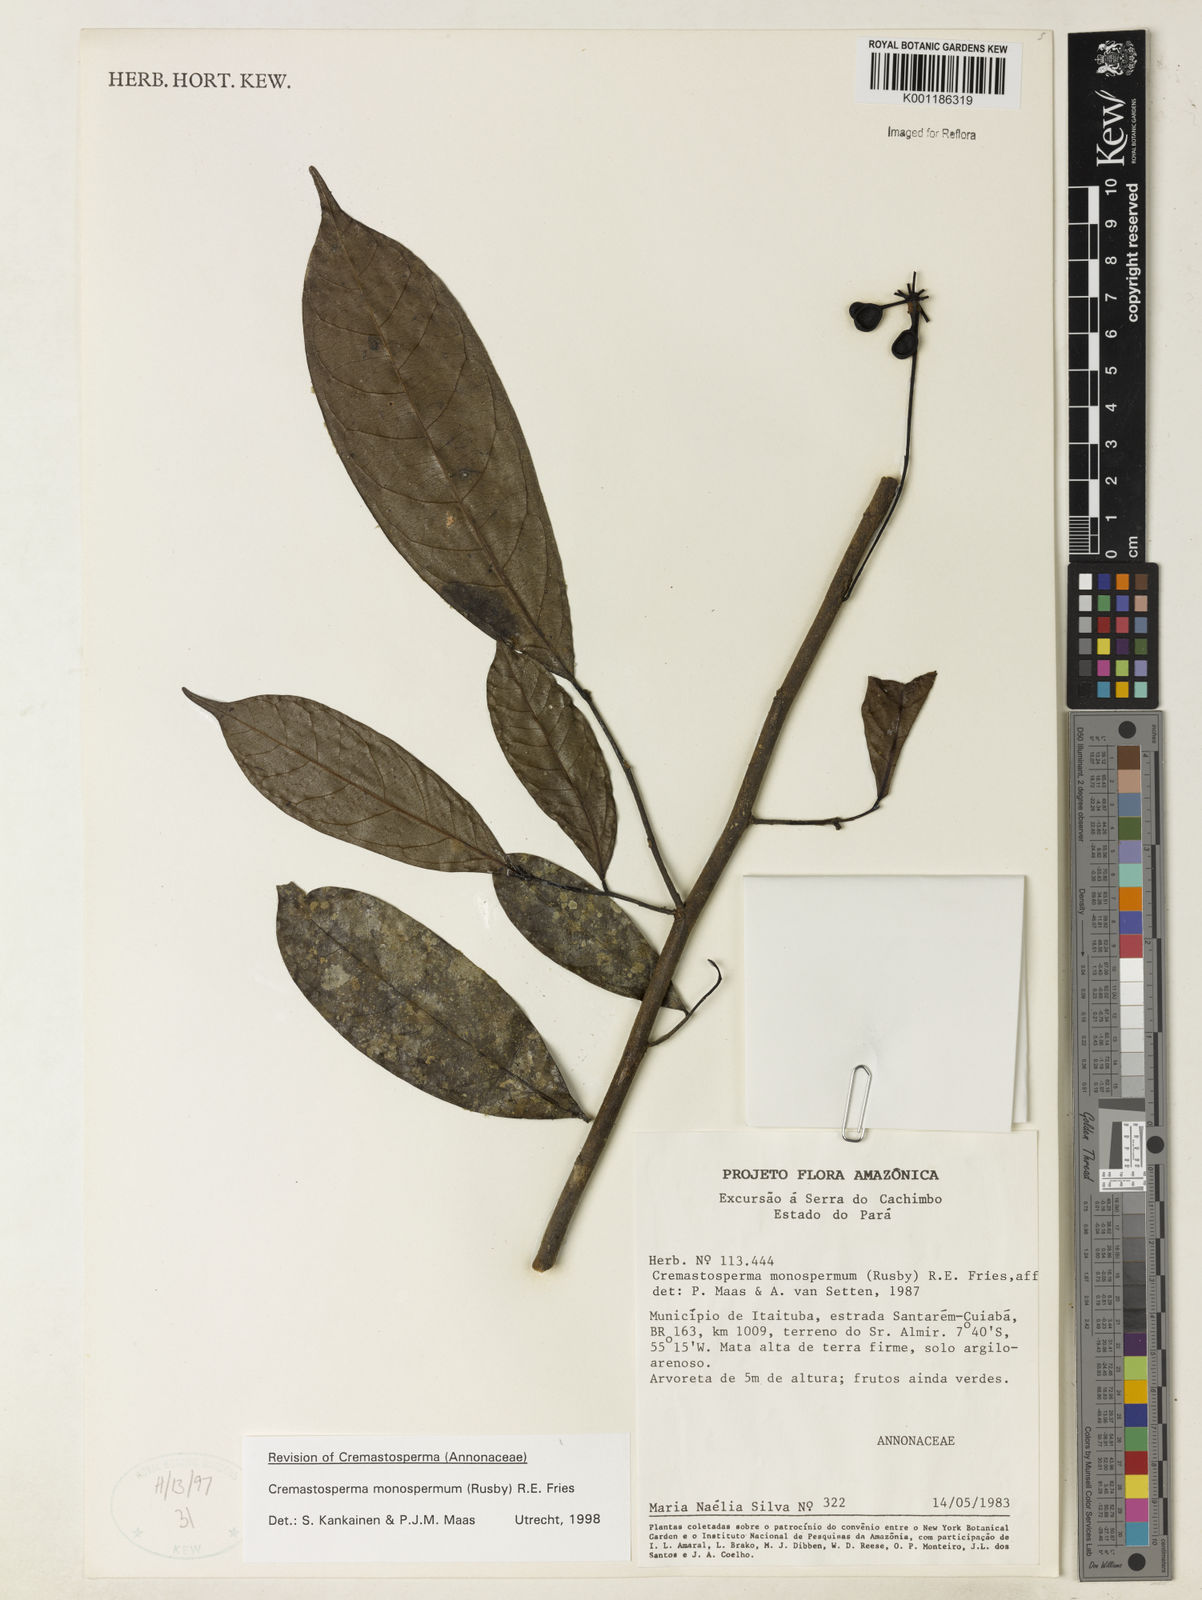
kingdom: Plantae
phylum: Tracheophyta
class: Magnoliopsida
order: Magnoliales
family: Annonaceae
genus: Cremastosperma
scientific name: Cremastosperma monospermum
